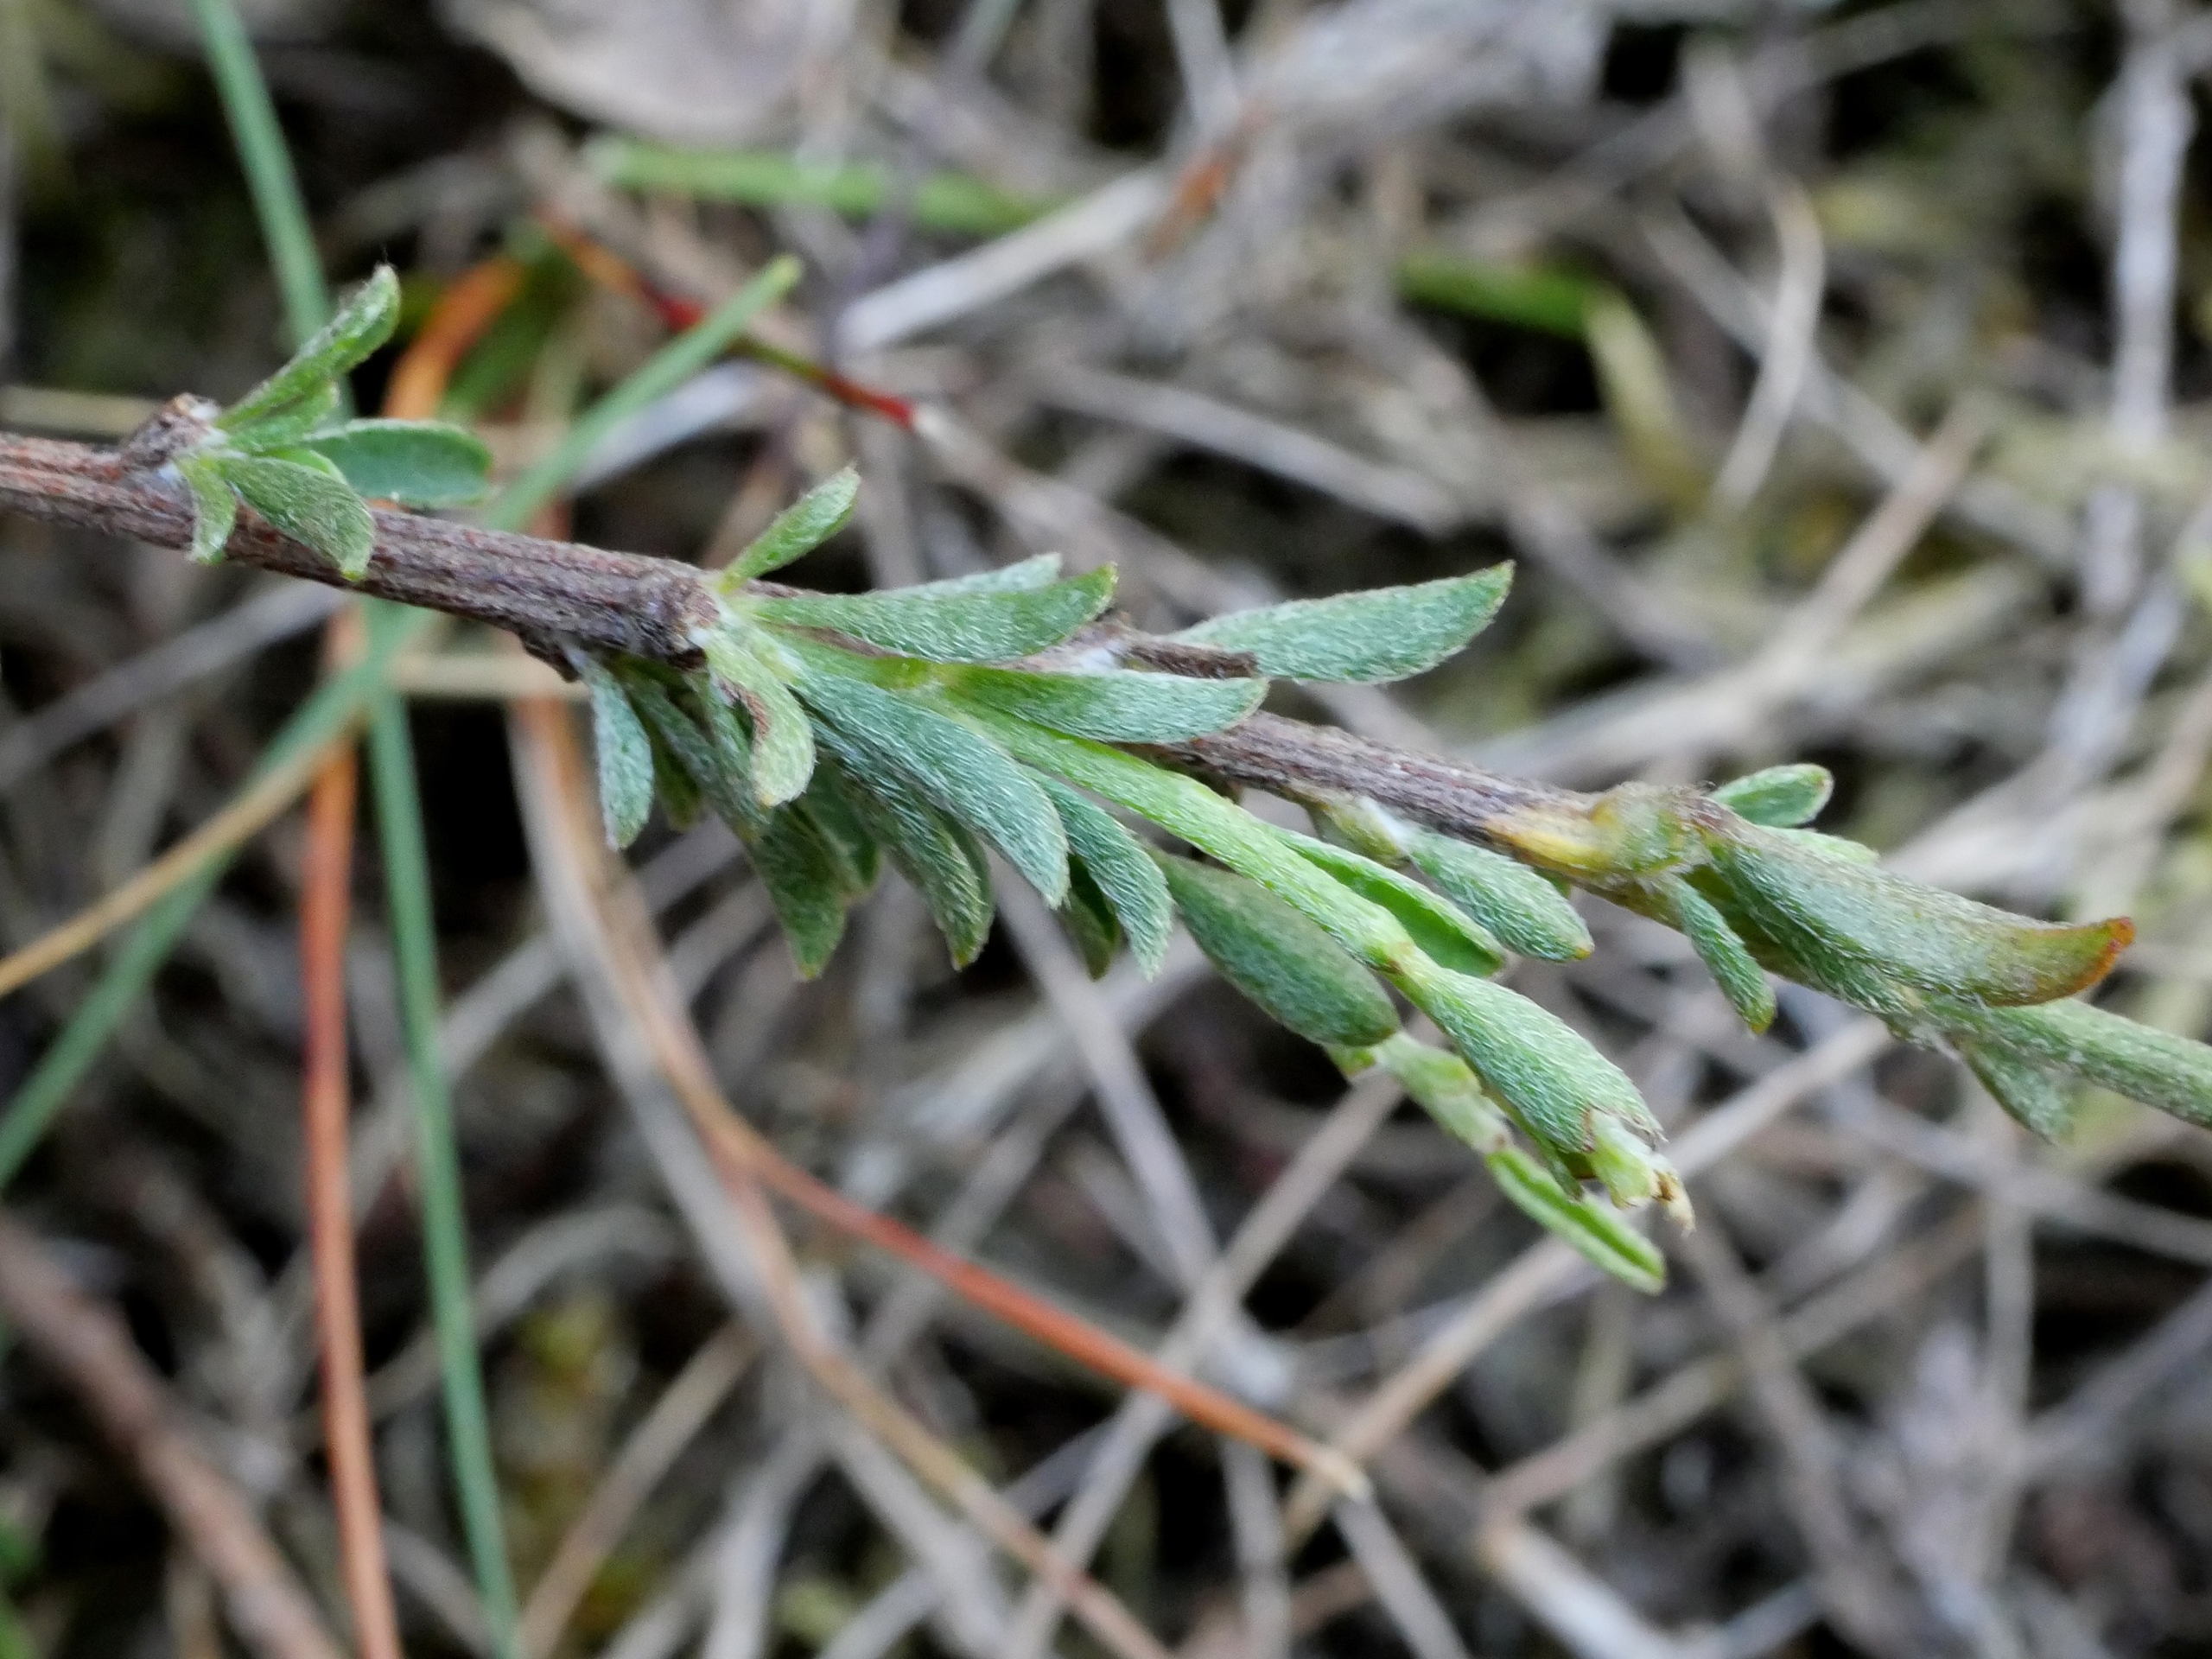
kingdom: Plantae
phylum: Tracheophyta
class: Magnoliopsida
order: Fabales
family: Fabaceae
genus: Genista
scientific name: Genista pilosa
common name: Håret visse
